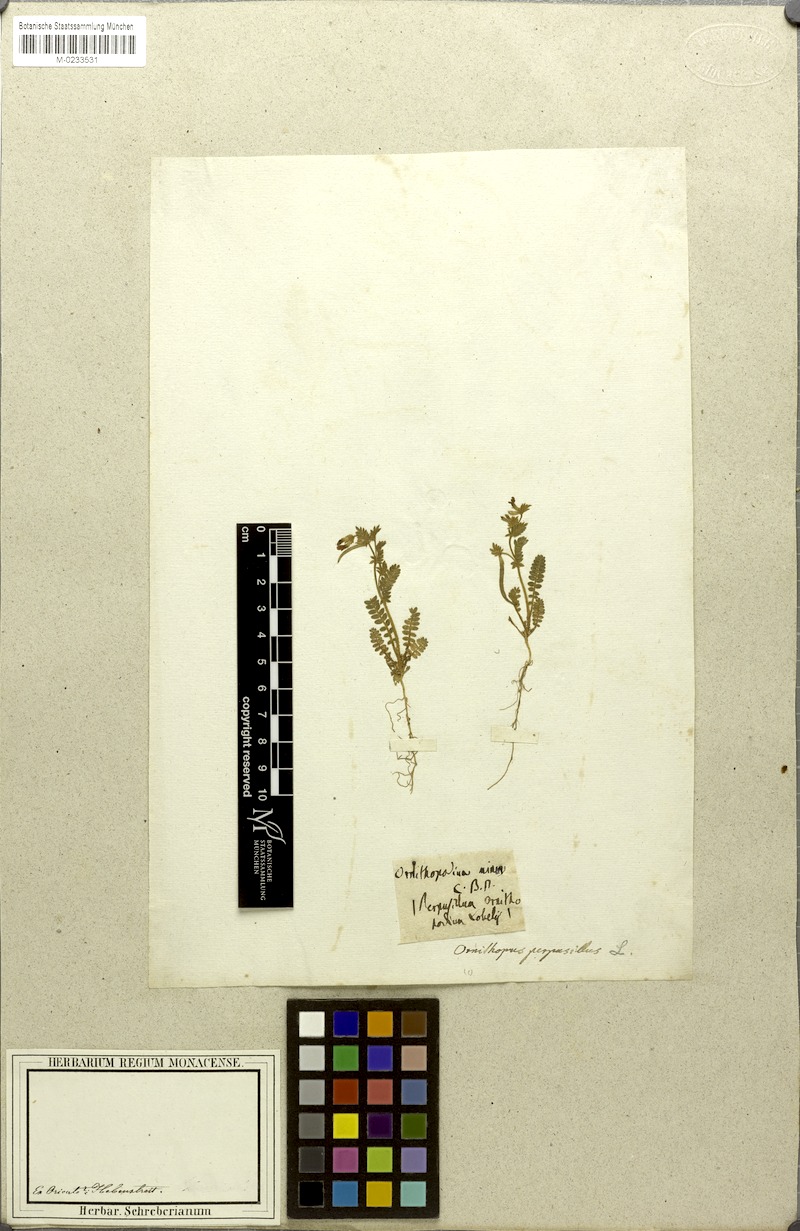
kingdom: Plantae
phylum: Tracheophyta
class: Magnoliopsida
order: Fabales
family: Fabaceae
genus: Ornithopus
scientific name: Ornithopus perpusillus
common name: Bird's-foot
